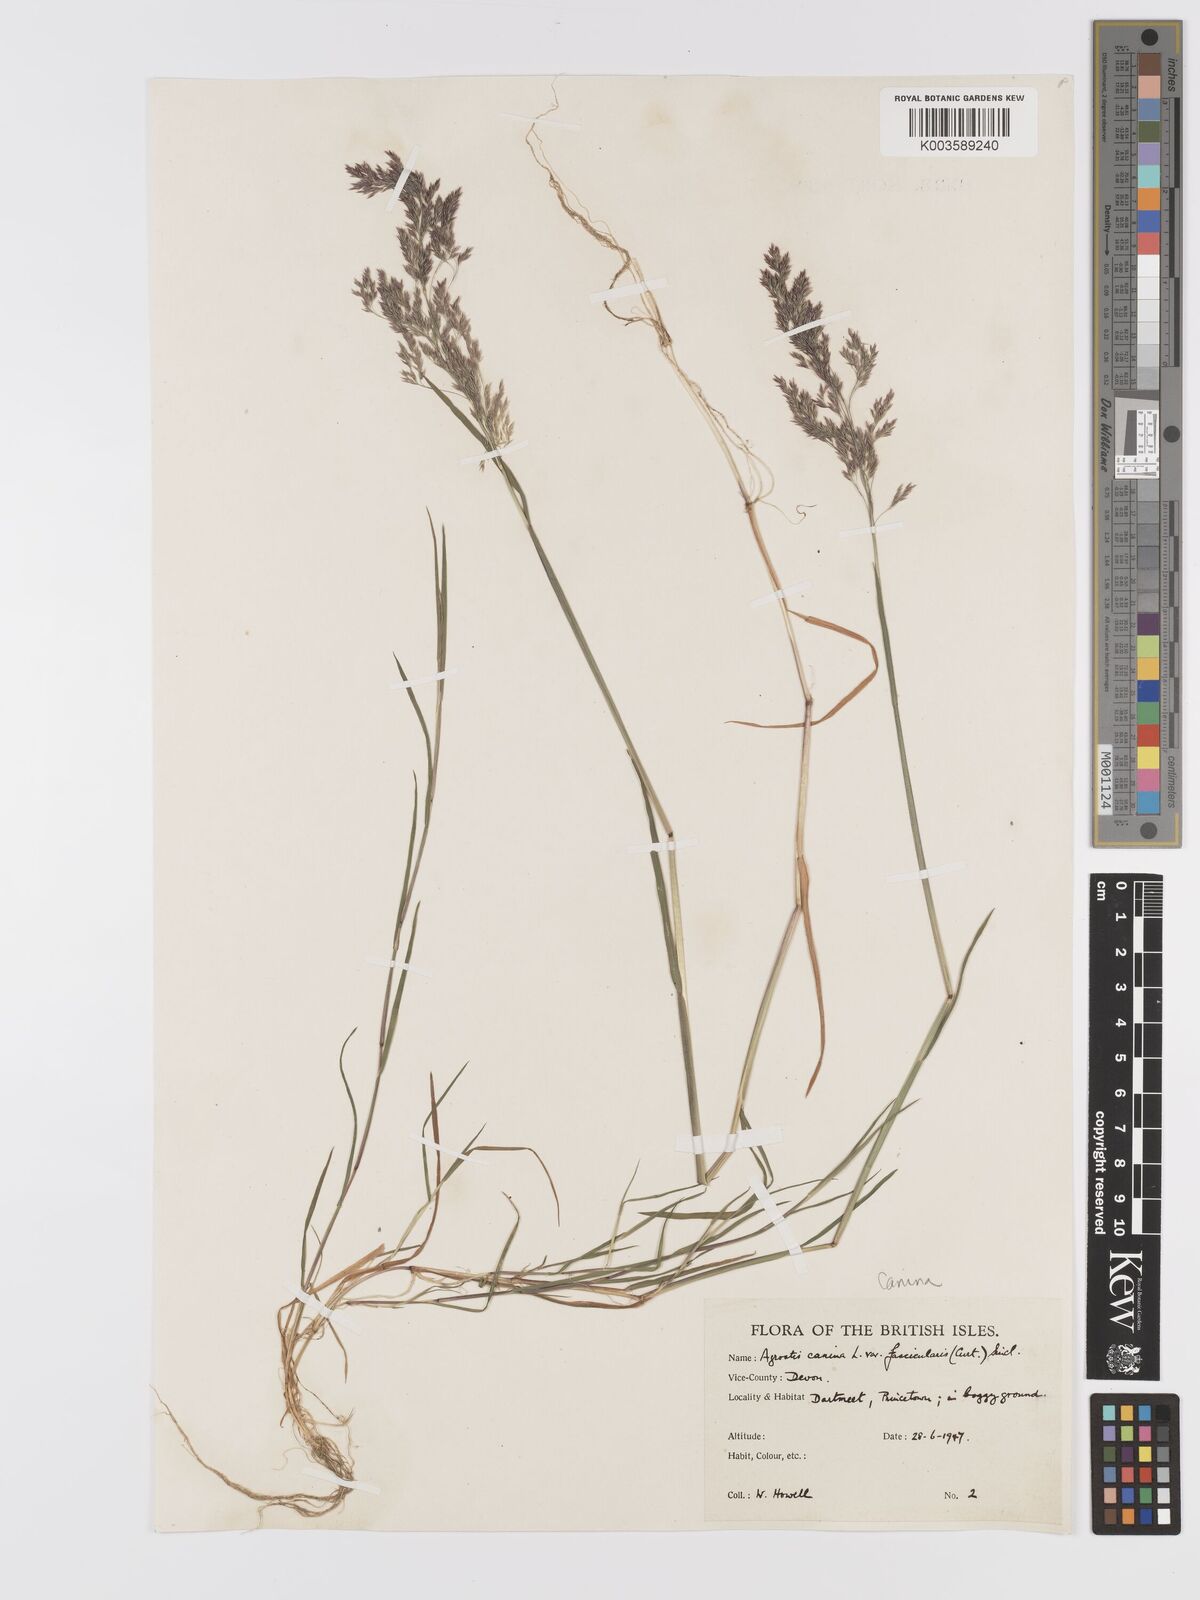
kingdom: Plantae
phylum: Tracheophyta
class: Liliopsida
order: Poales
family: Poaceae
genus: Agrostis
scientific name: Agrostis canina
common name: Velvet bent
